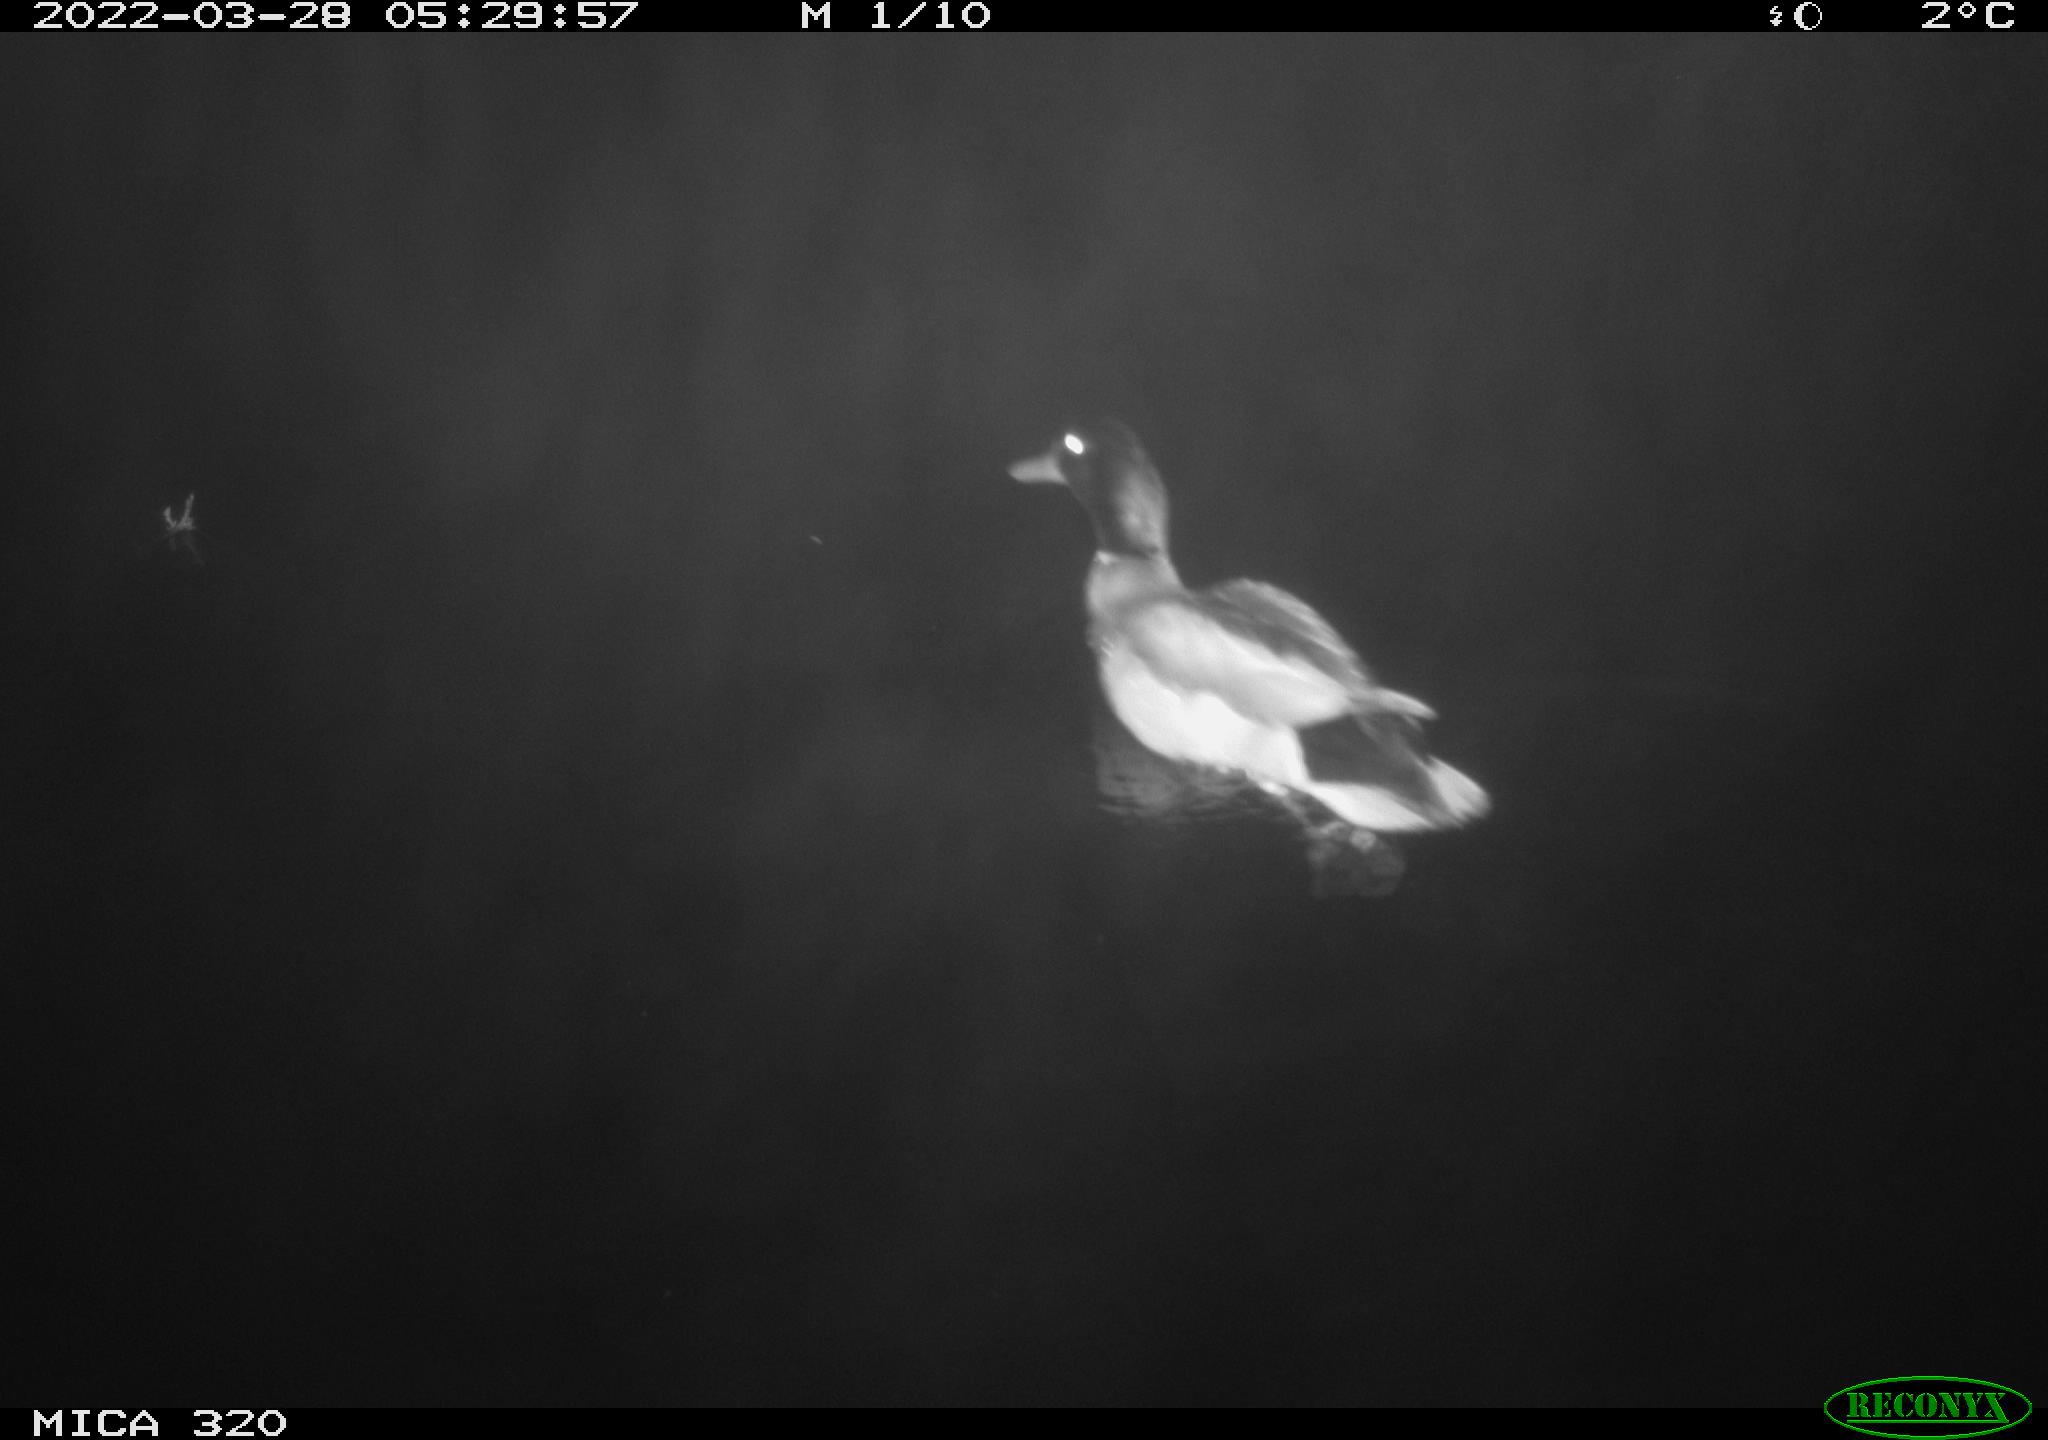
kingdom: Animalia
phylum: Chordata
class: Aves
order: Anseriformes
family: Anatidae
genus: Anas
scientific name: Anas platyrhynchos
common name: Mallard
